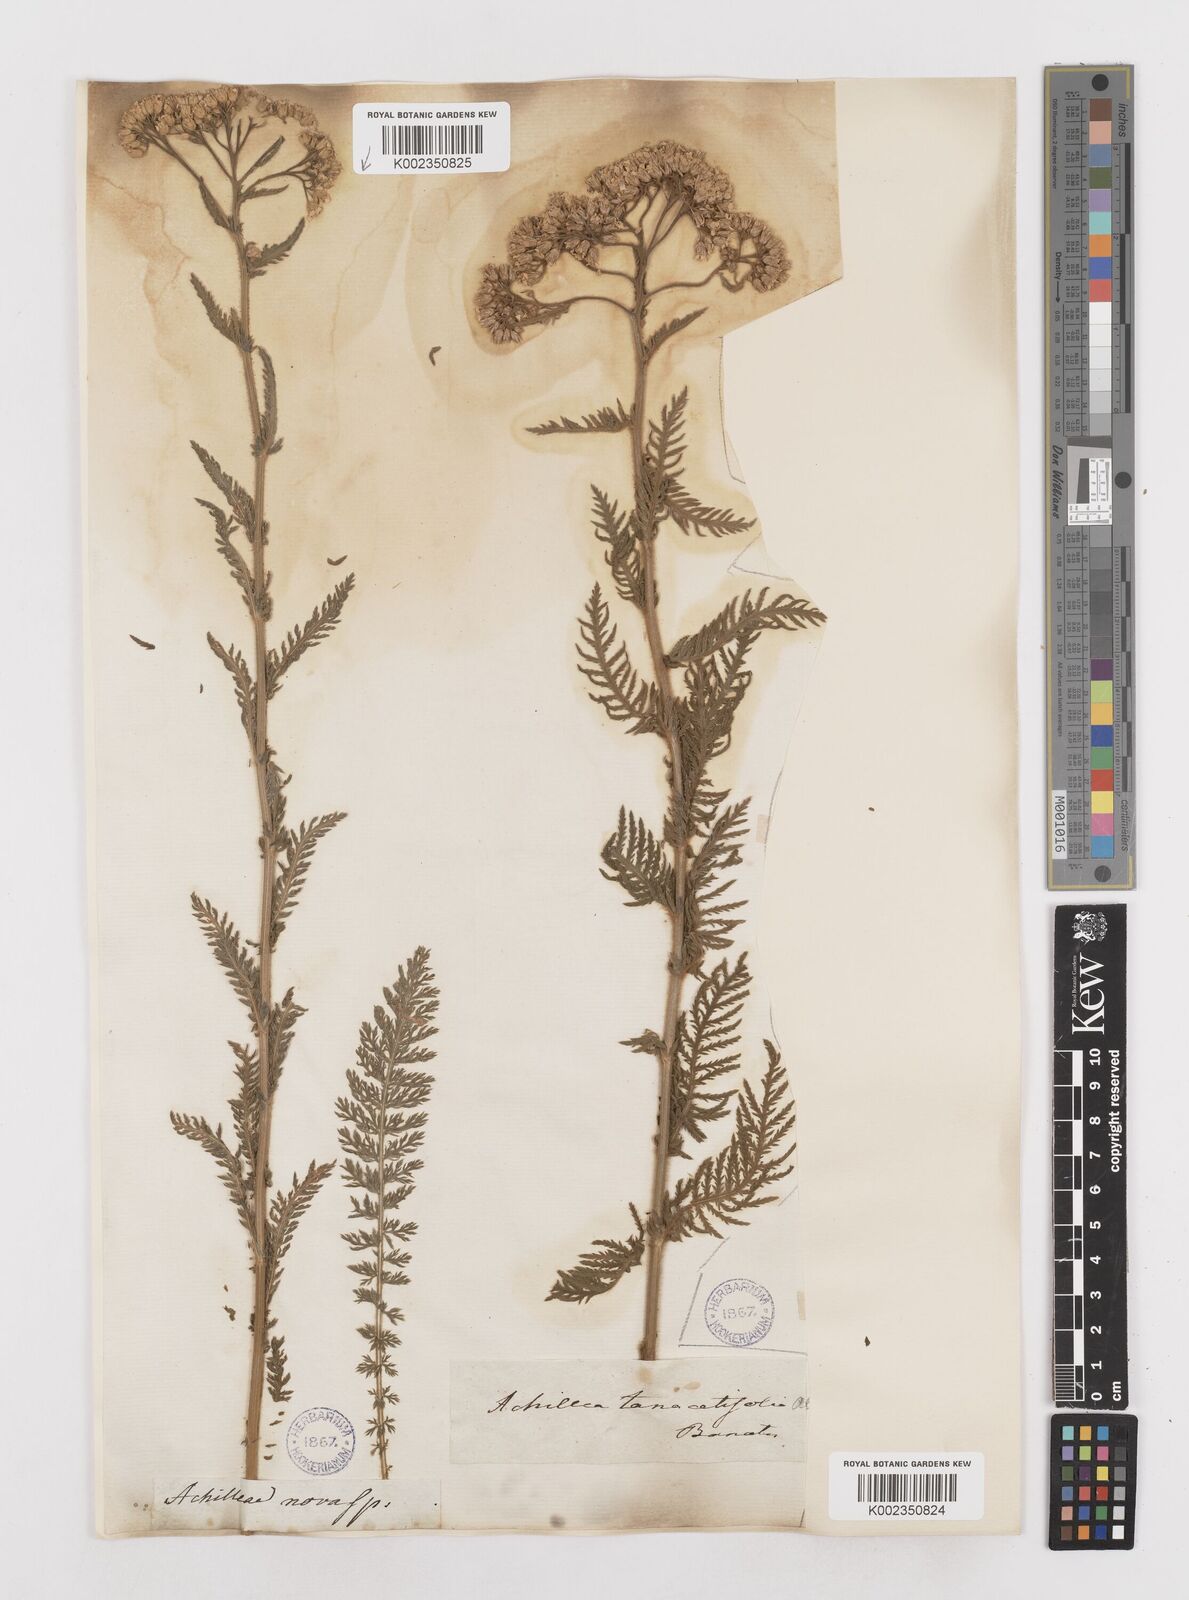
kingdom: Plantae
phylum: Tracheophyta
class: Magnoliopsida
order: Asterales
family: Asteraceae
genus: Achillea
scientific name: Achillea distans
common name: Tall yarrow
